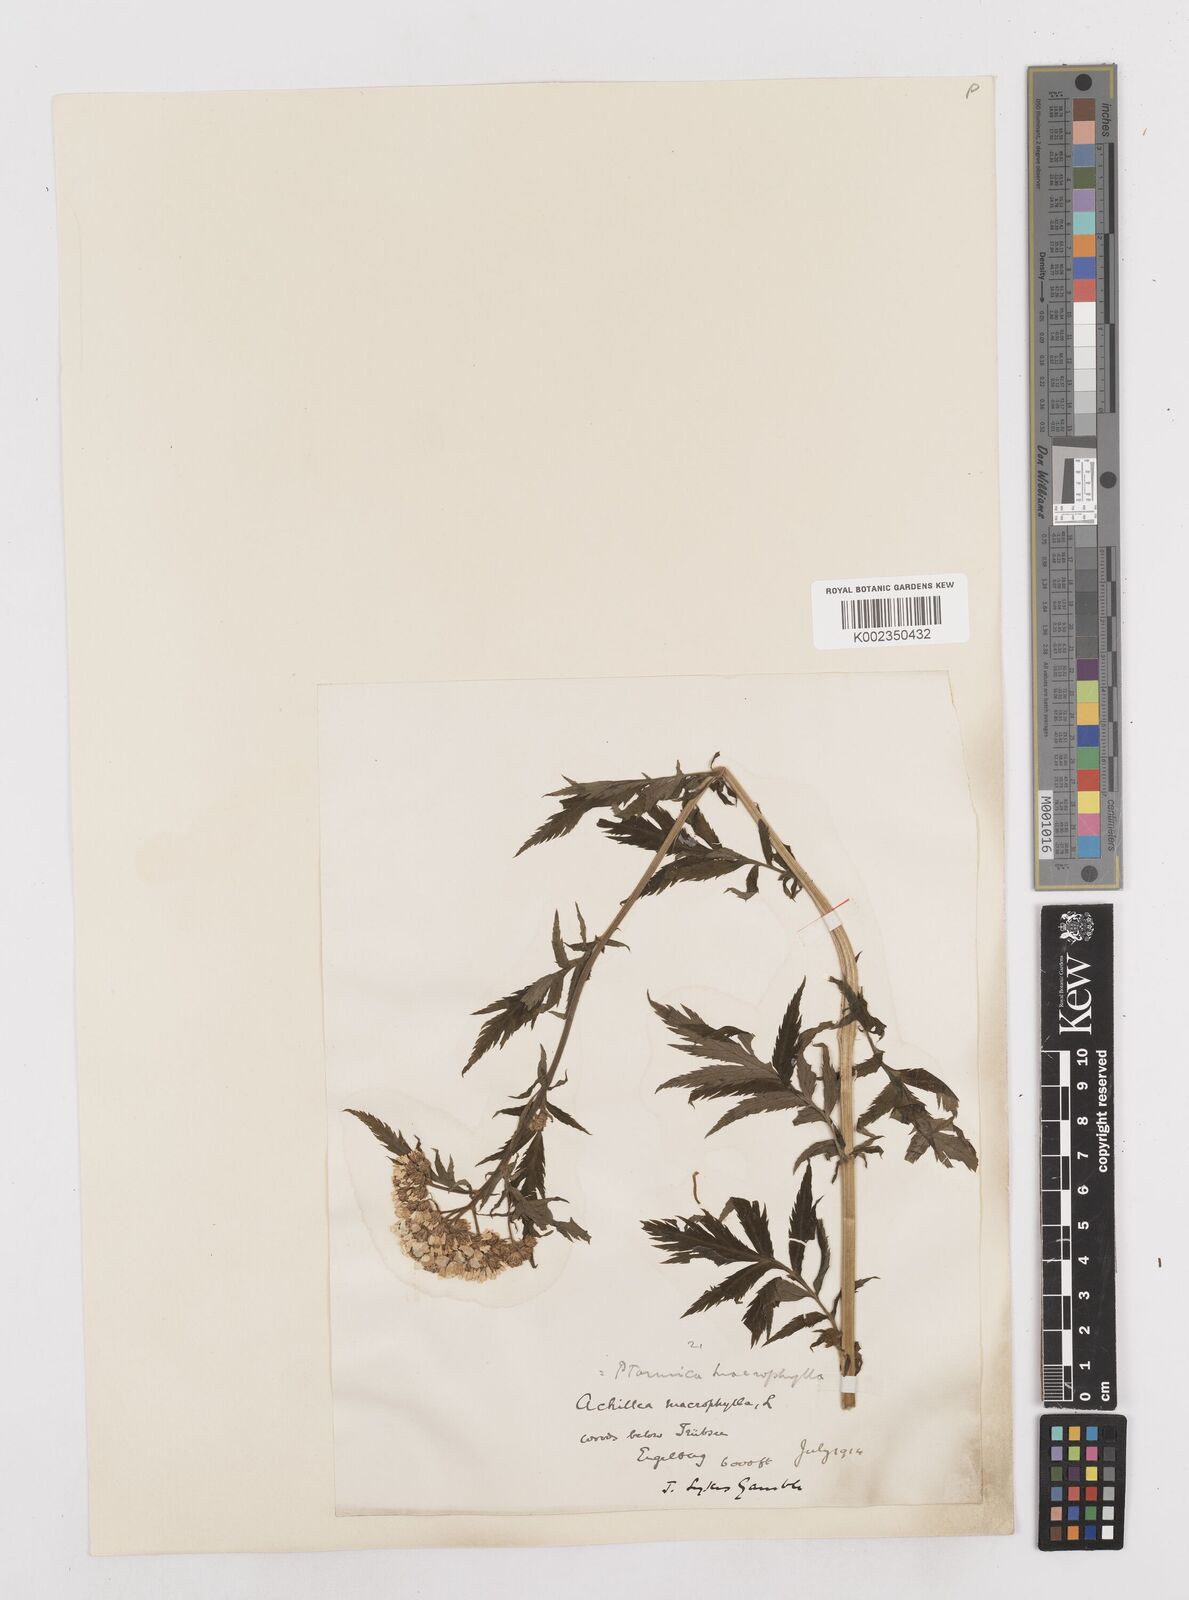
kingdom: Plantae
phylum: Tracheophyta
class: Magnoliopsida
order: Asterales
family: Asteraceae
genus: Achillea
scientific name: Achillea macrophylla
